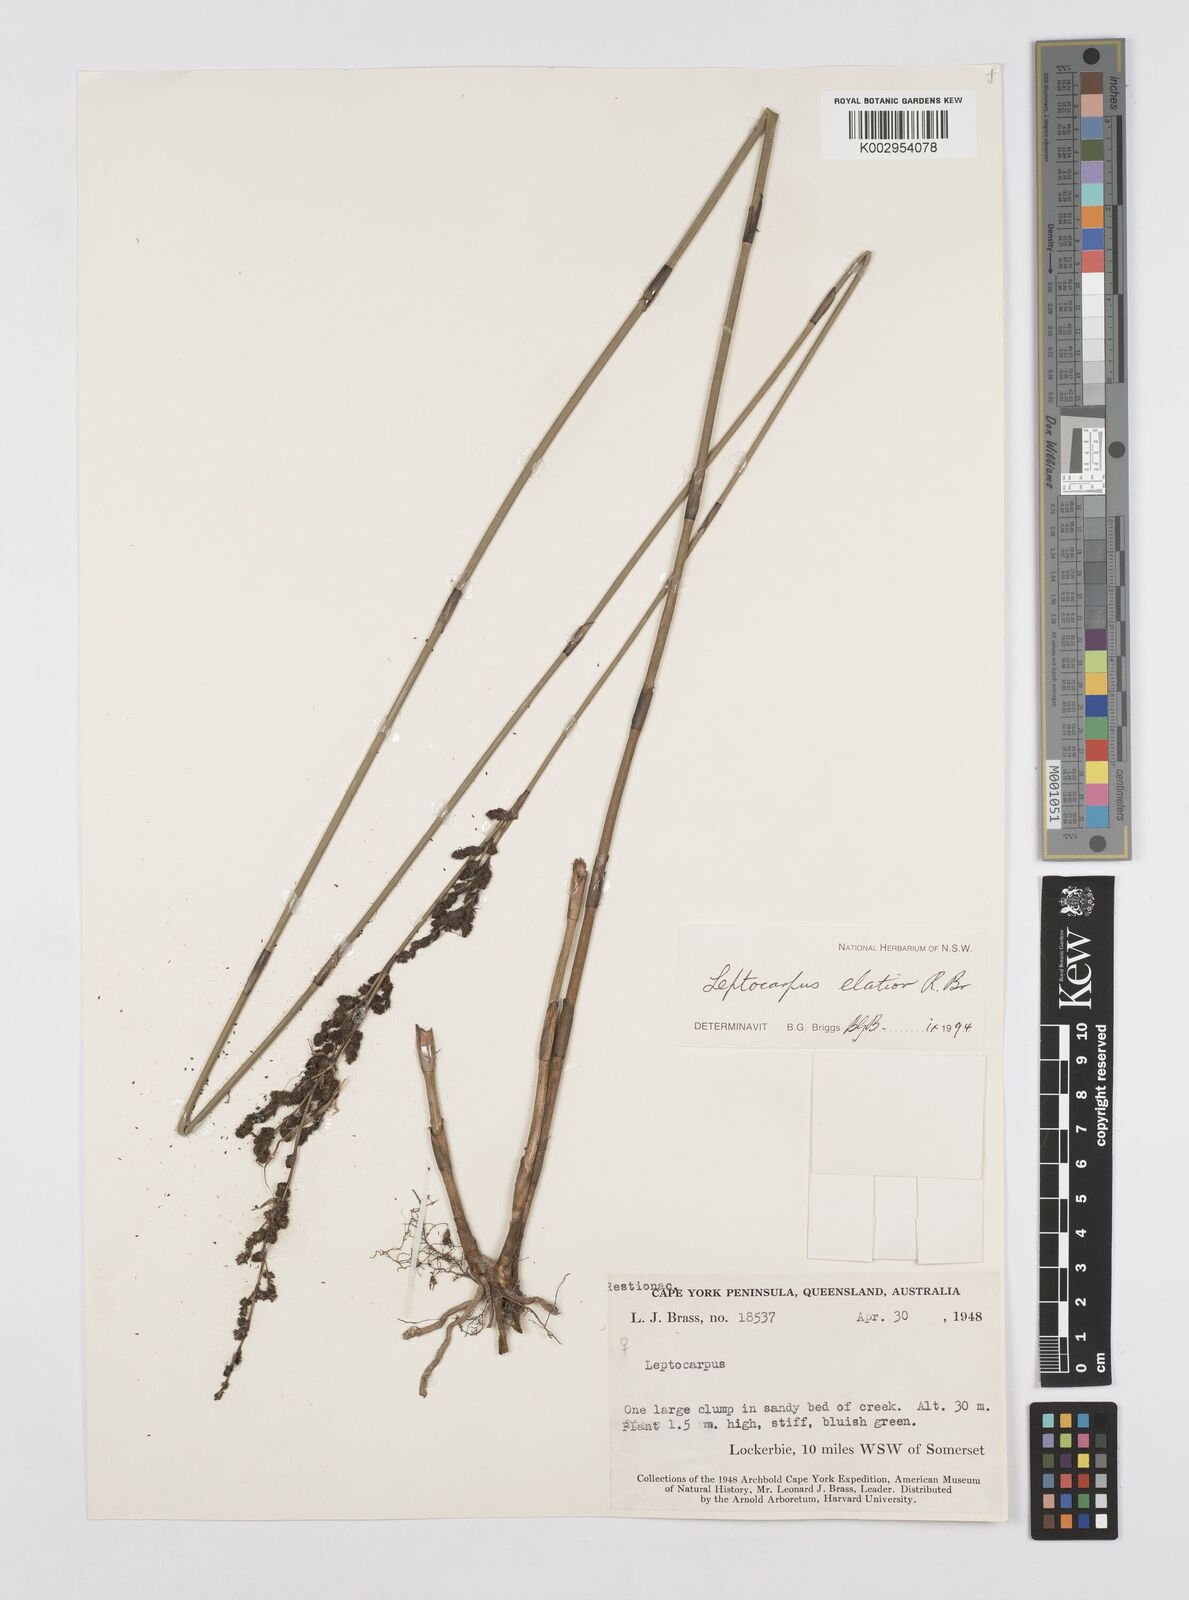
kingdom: Plantae
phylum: Tracheophyta
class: Liliopsida
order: Poales
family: Restionaceae
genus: Dapsilanthus
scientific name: Dapsilanthus elatior
